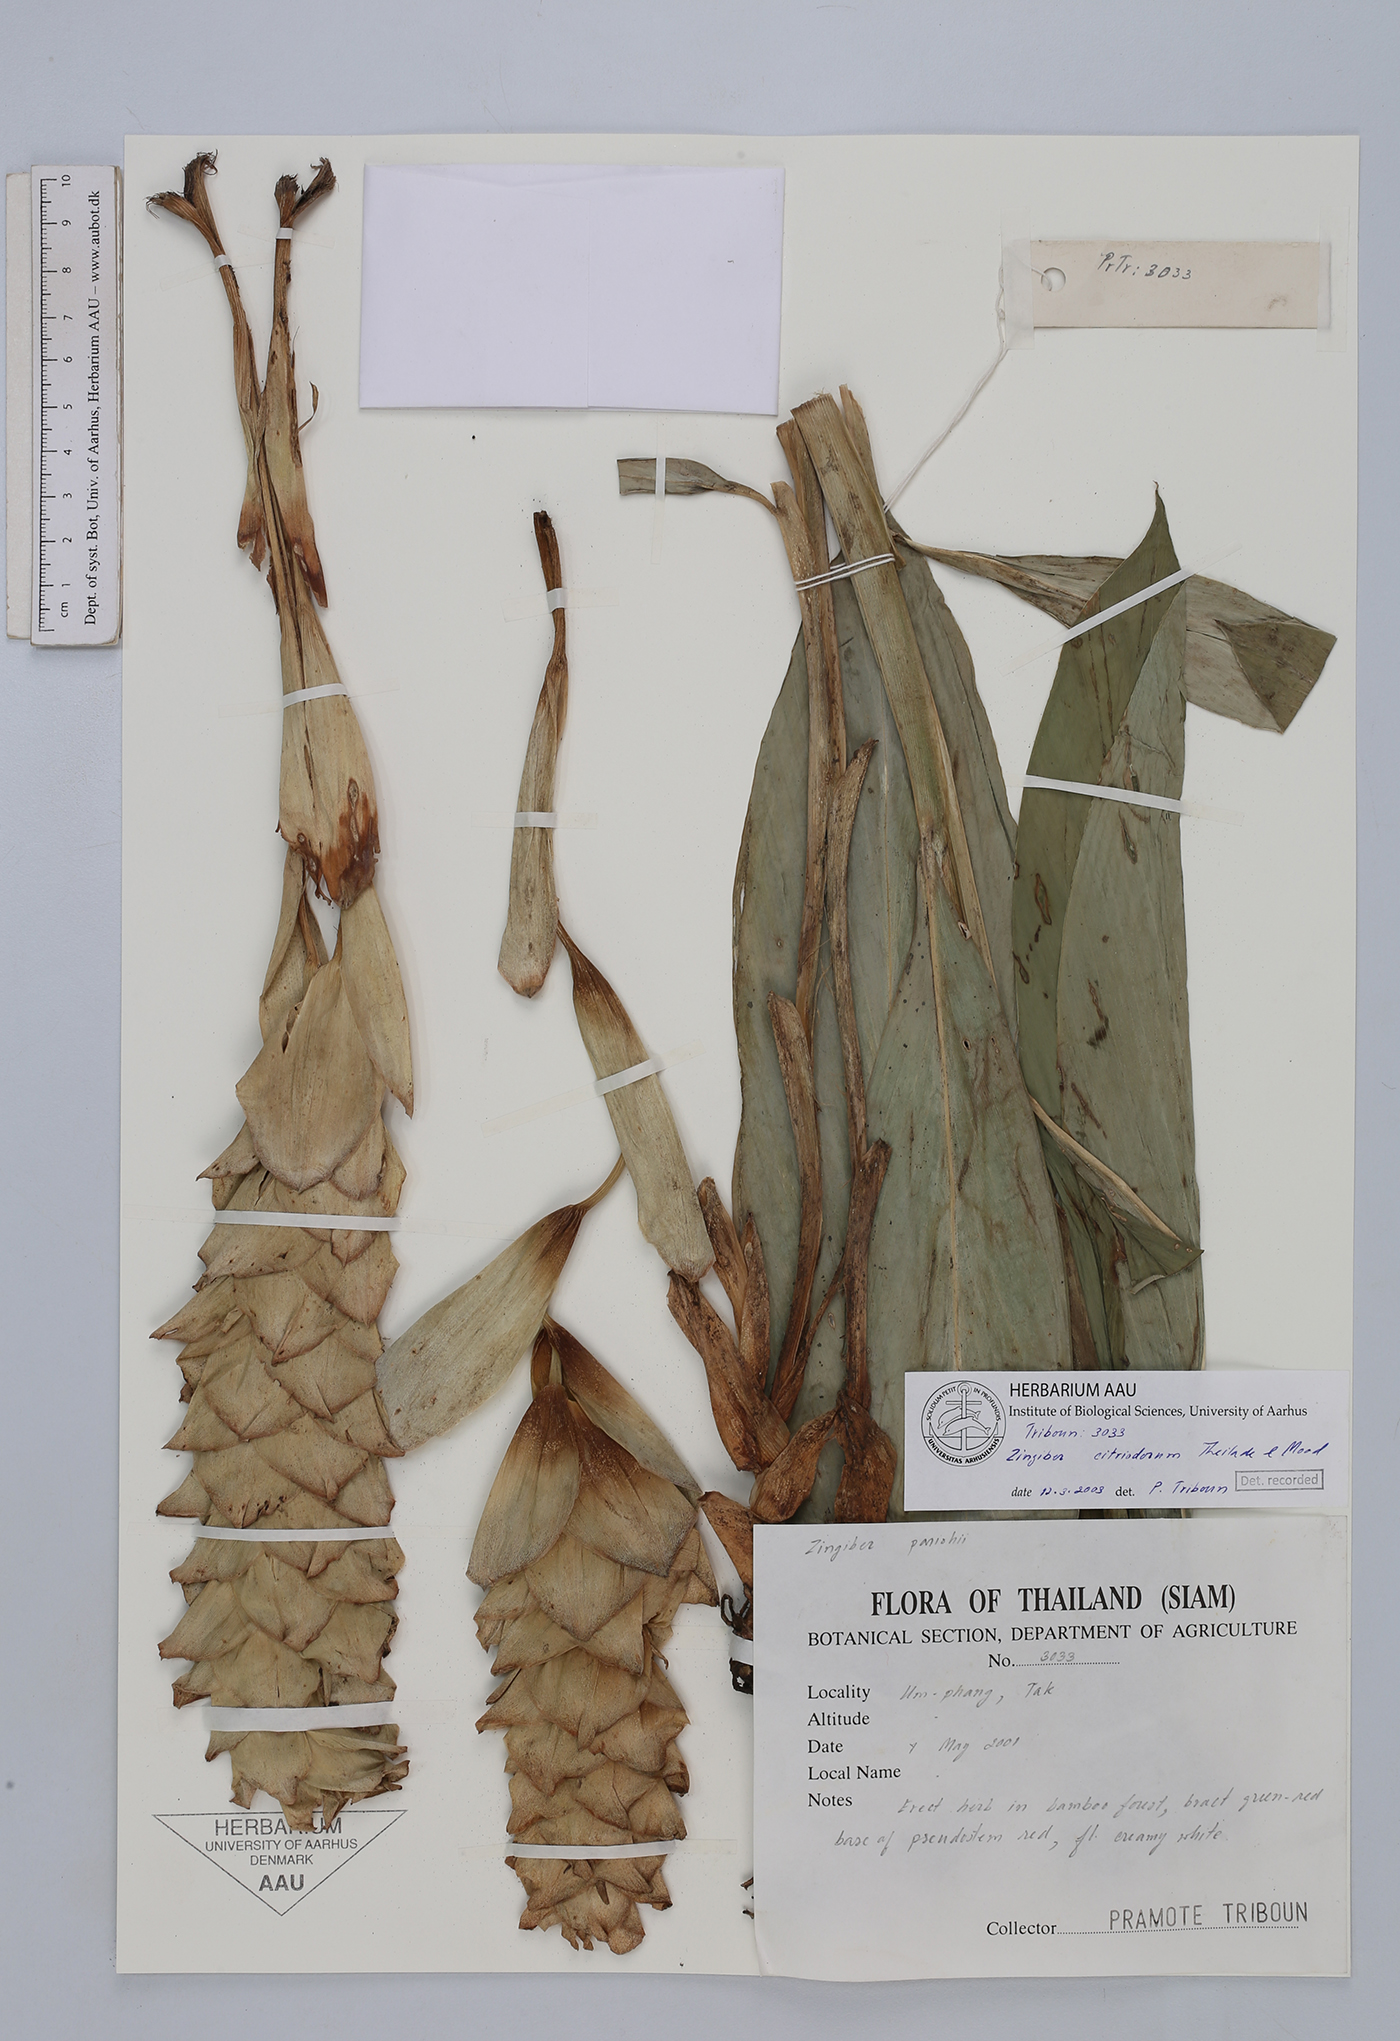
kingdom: Plantae
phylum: Tracheophyta
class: Liliopsida
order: Zingiberales
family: Zingiberaceae
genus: Zingiber
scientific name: Zingiber citriodorum
